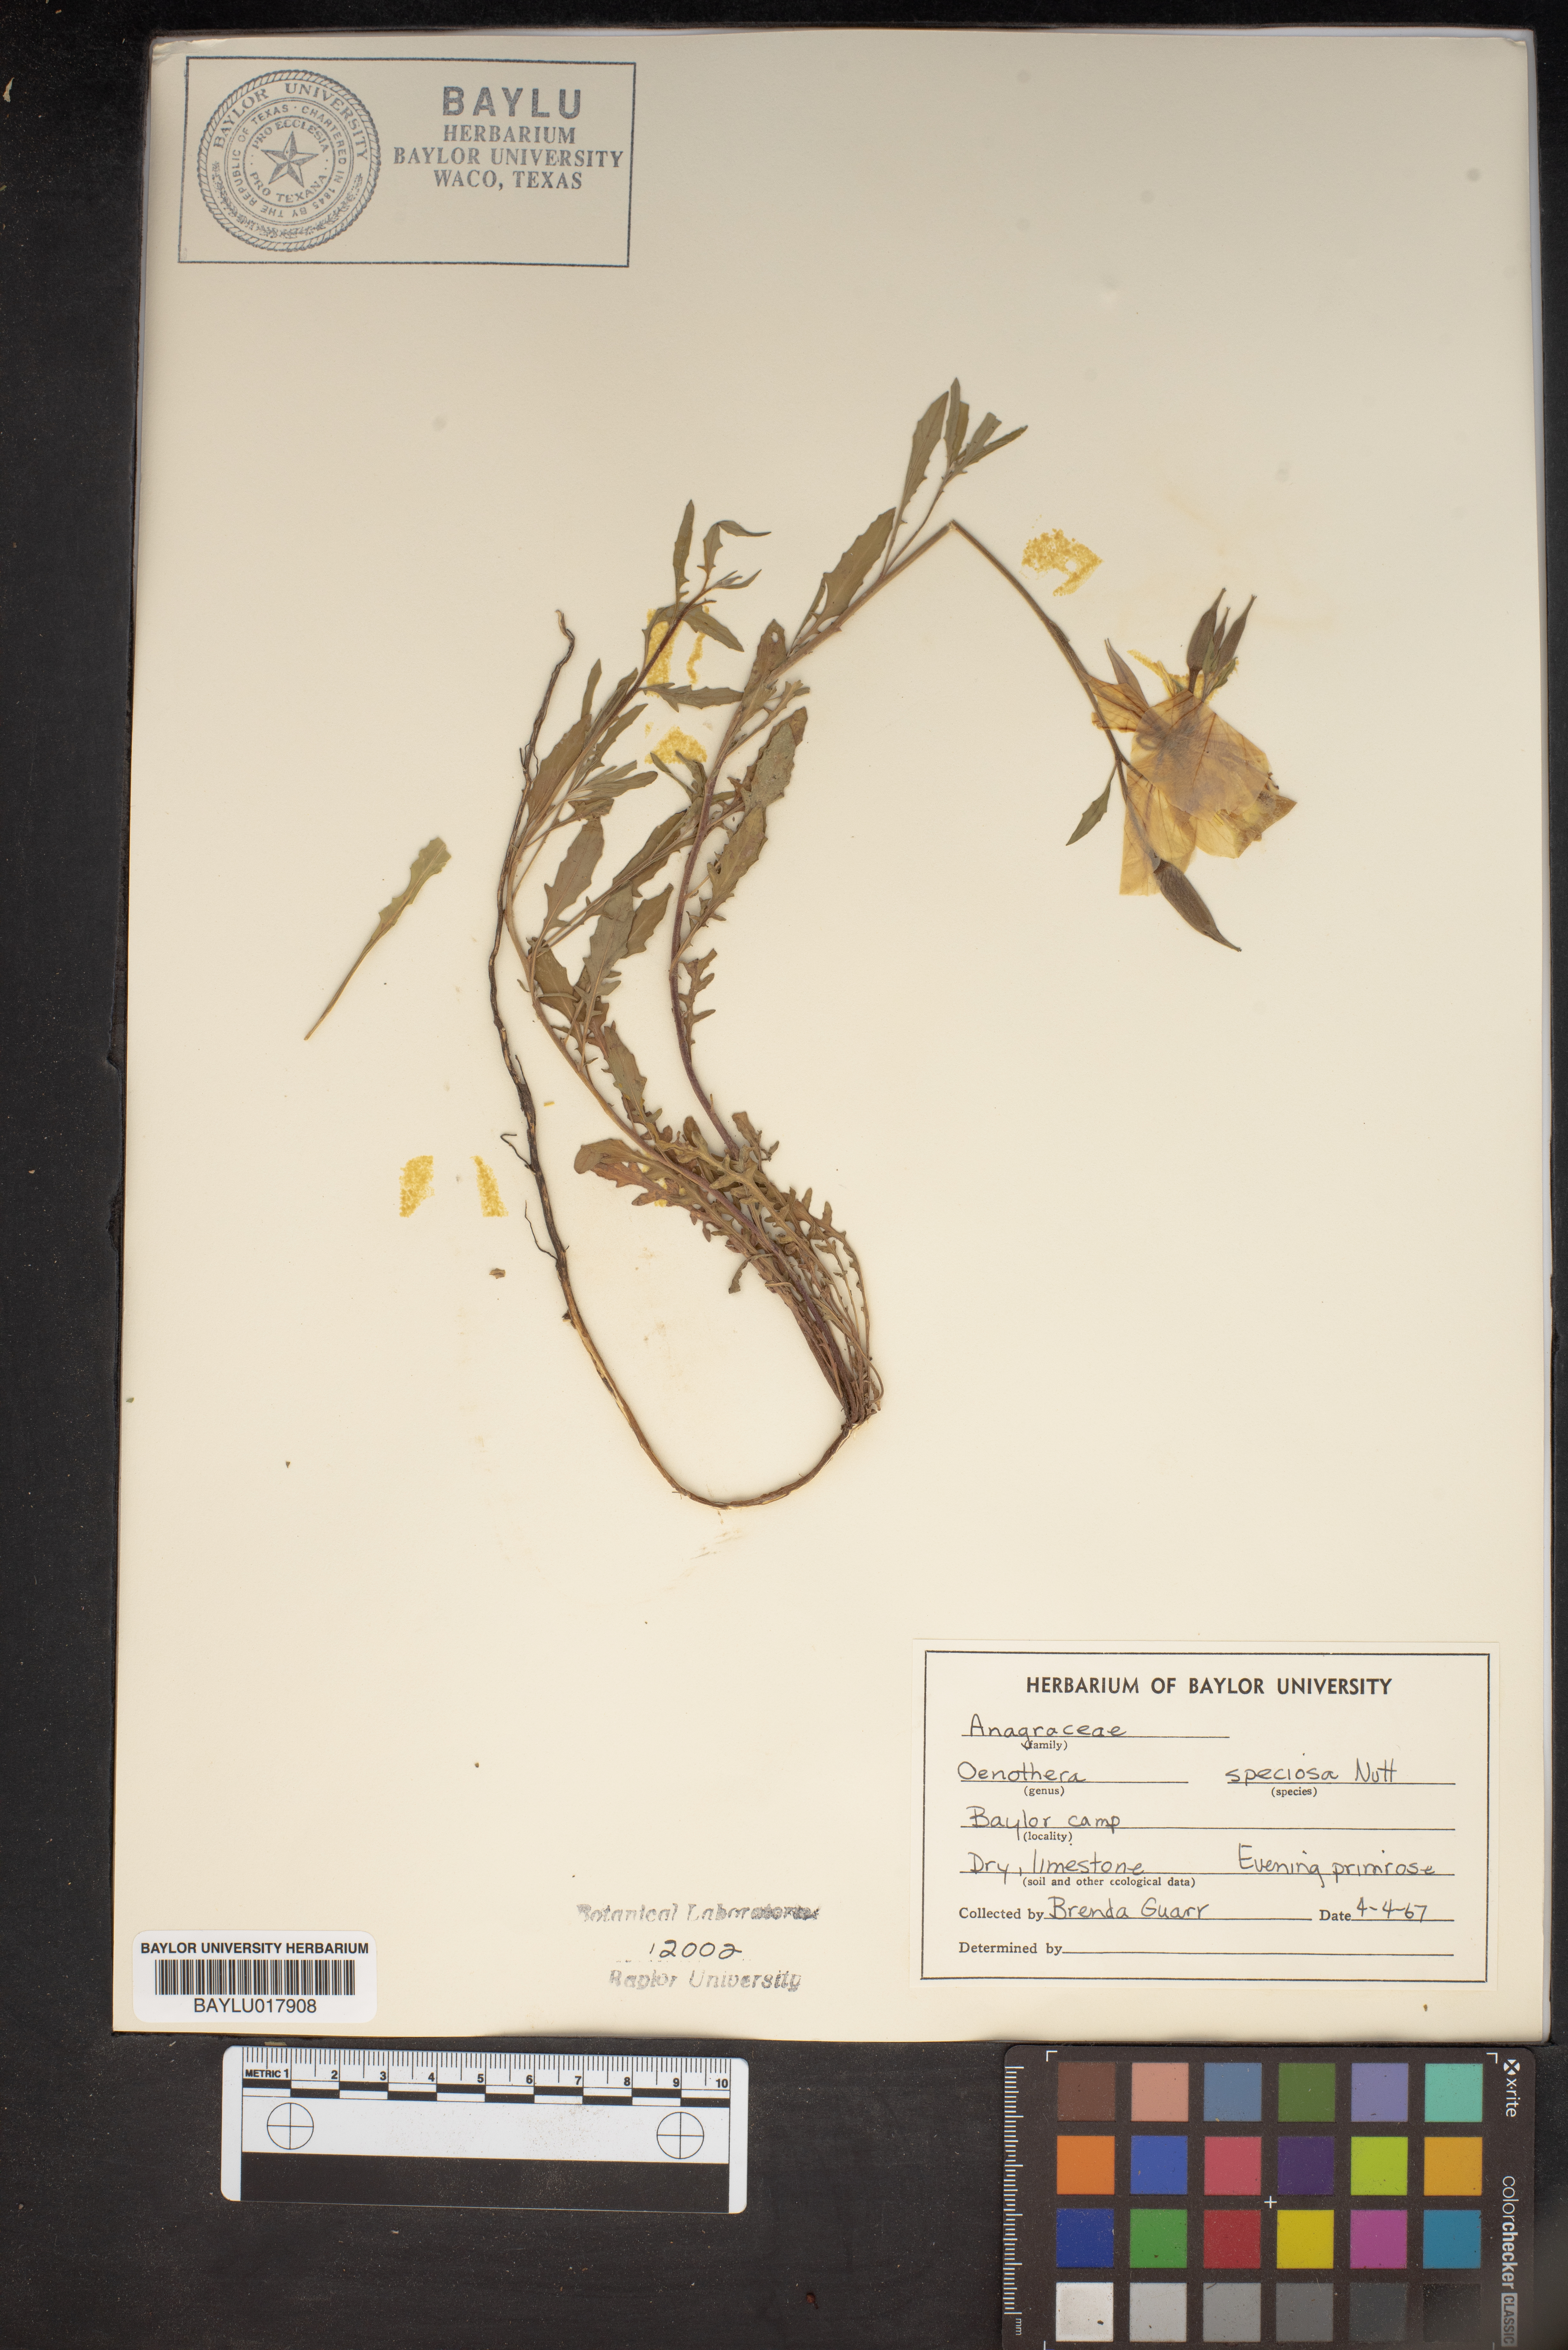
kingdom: Plantae
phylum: Tracheophyta
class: Magnoliopsida
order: Myrtales
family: Onagraceae
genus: Oenothera
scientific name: Oenothera speciosa
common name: White evening-primrose
